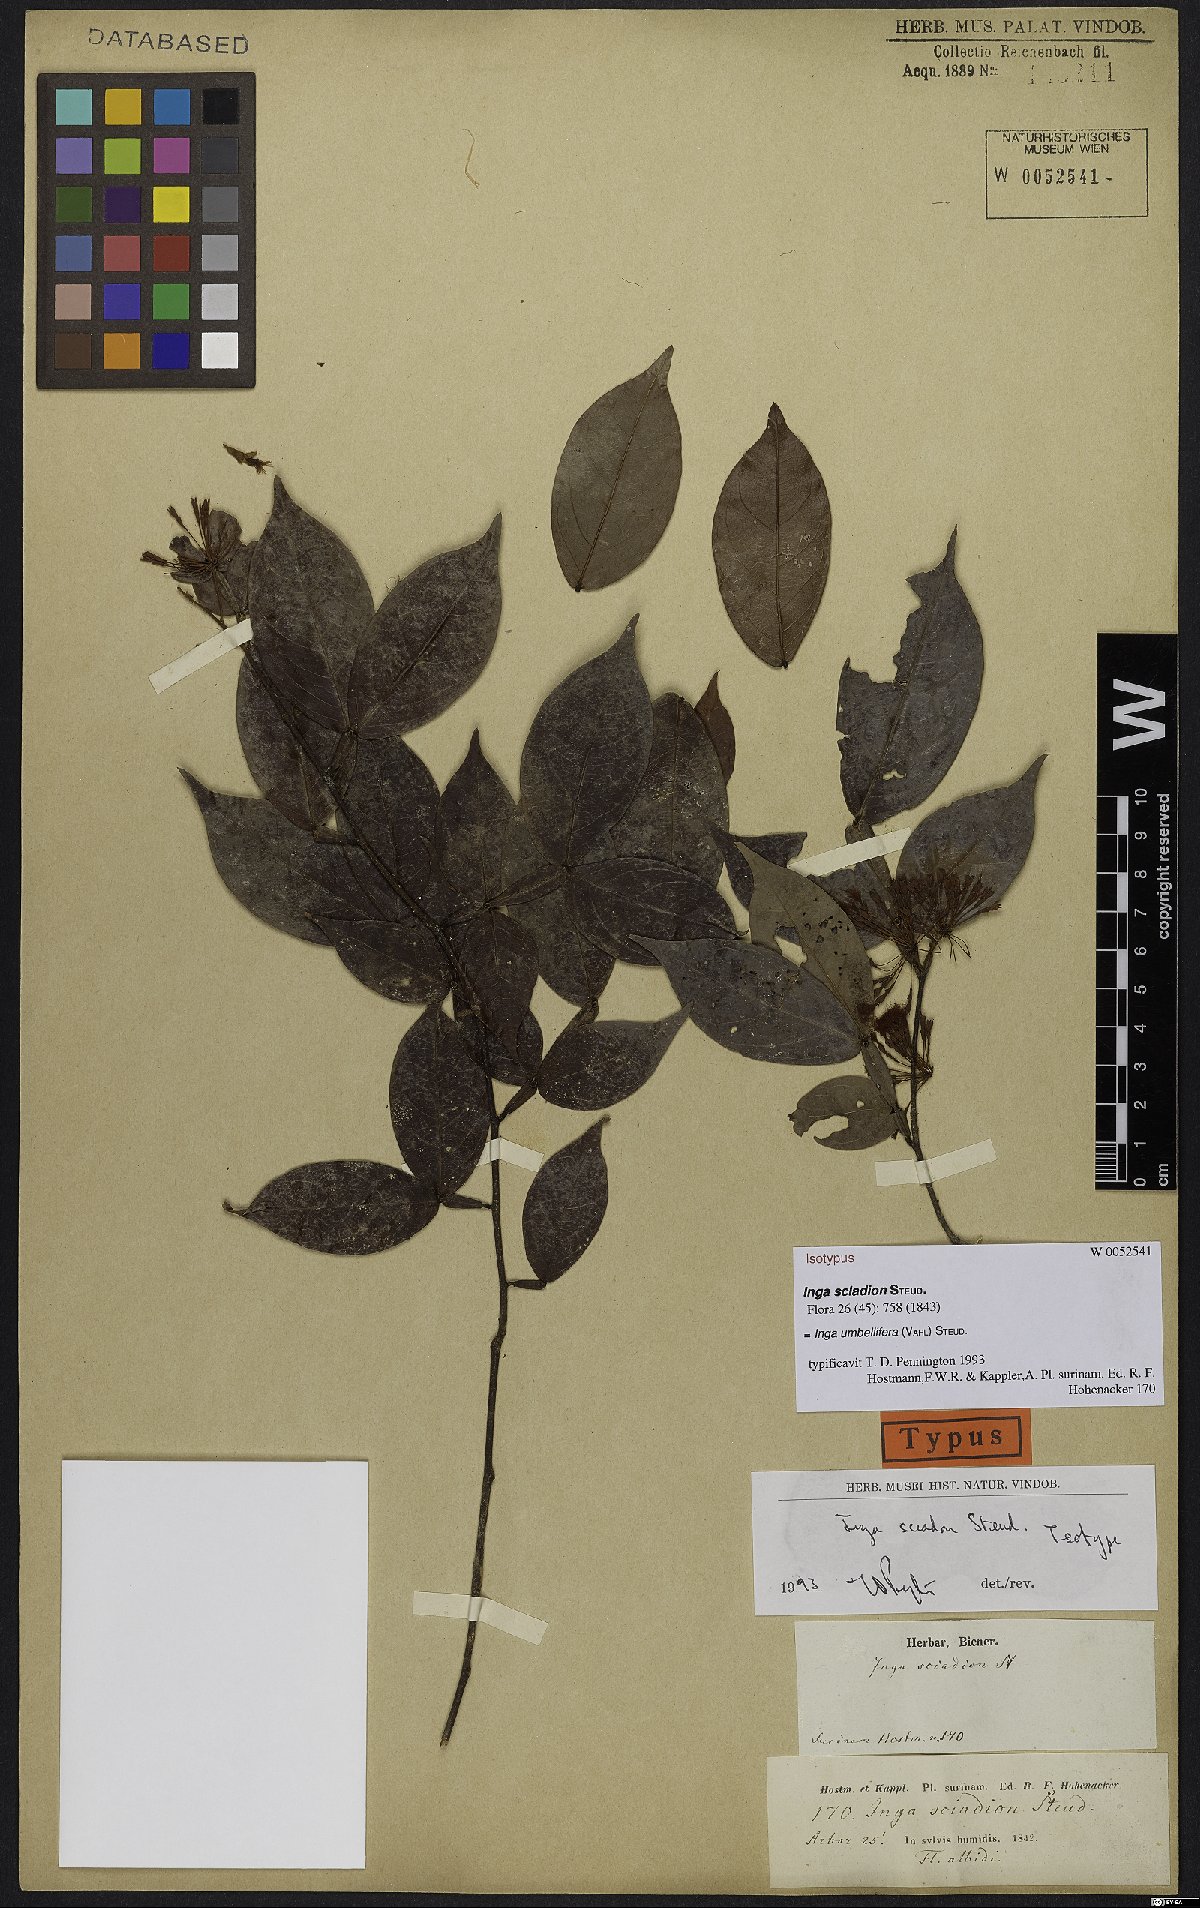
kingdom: Plantae
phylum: Tracheophyta
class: Magnoliopsida
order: Fabales
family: Fabaceae
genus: Inga
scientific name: Inga umbellifera
